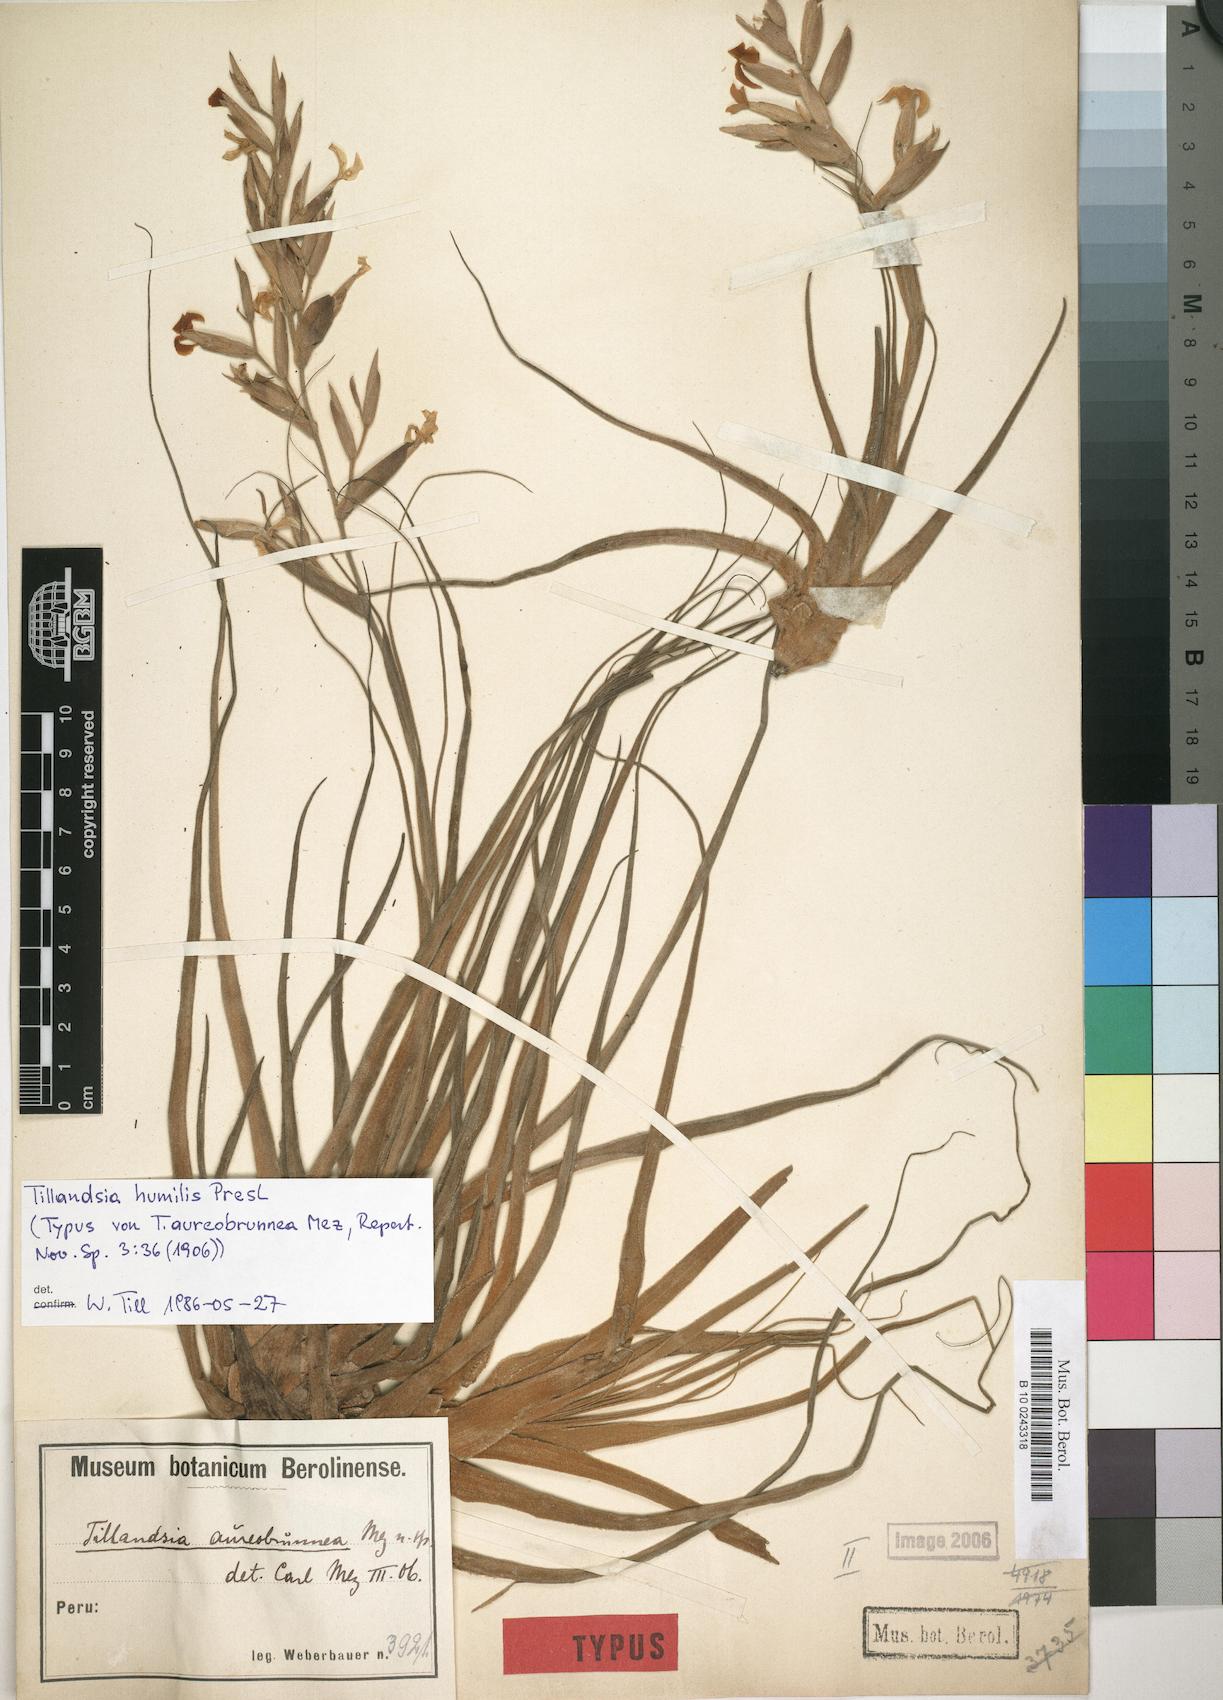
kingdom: Plantae
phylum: Tracheophyta
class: Liliopsida
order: Poales
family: Bromeliaceae
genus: Tillandsia
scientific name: Tillandsia humilis
